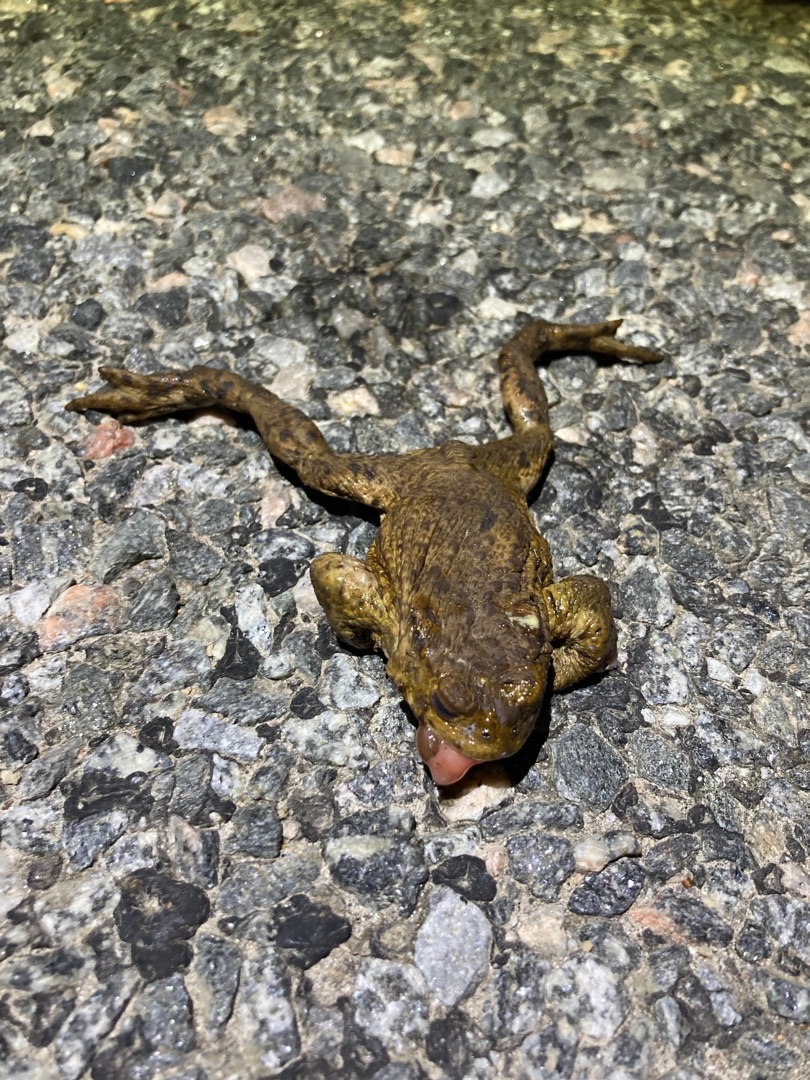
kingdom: Animalia
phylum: Chordata
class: Amphibia
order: Anura
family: Bufonidae
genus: Bufo
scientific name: Bufo bufo
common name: Skrubtudse
